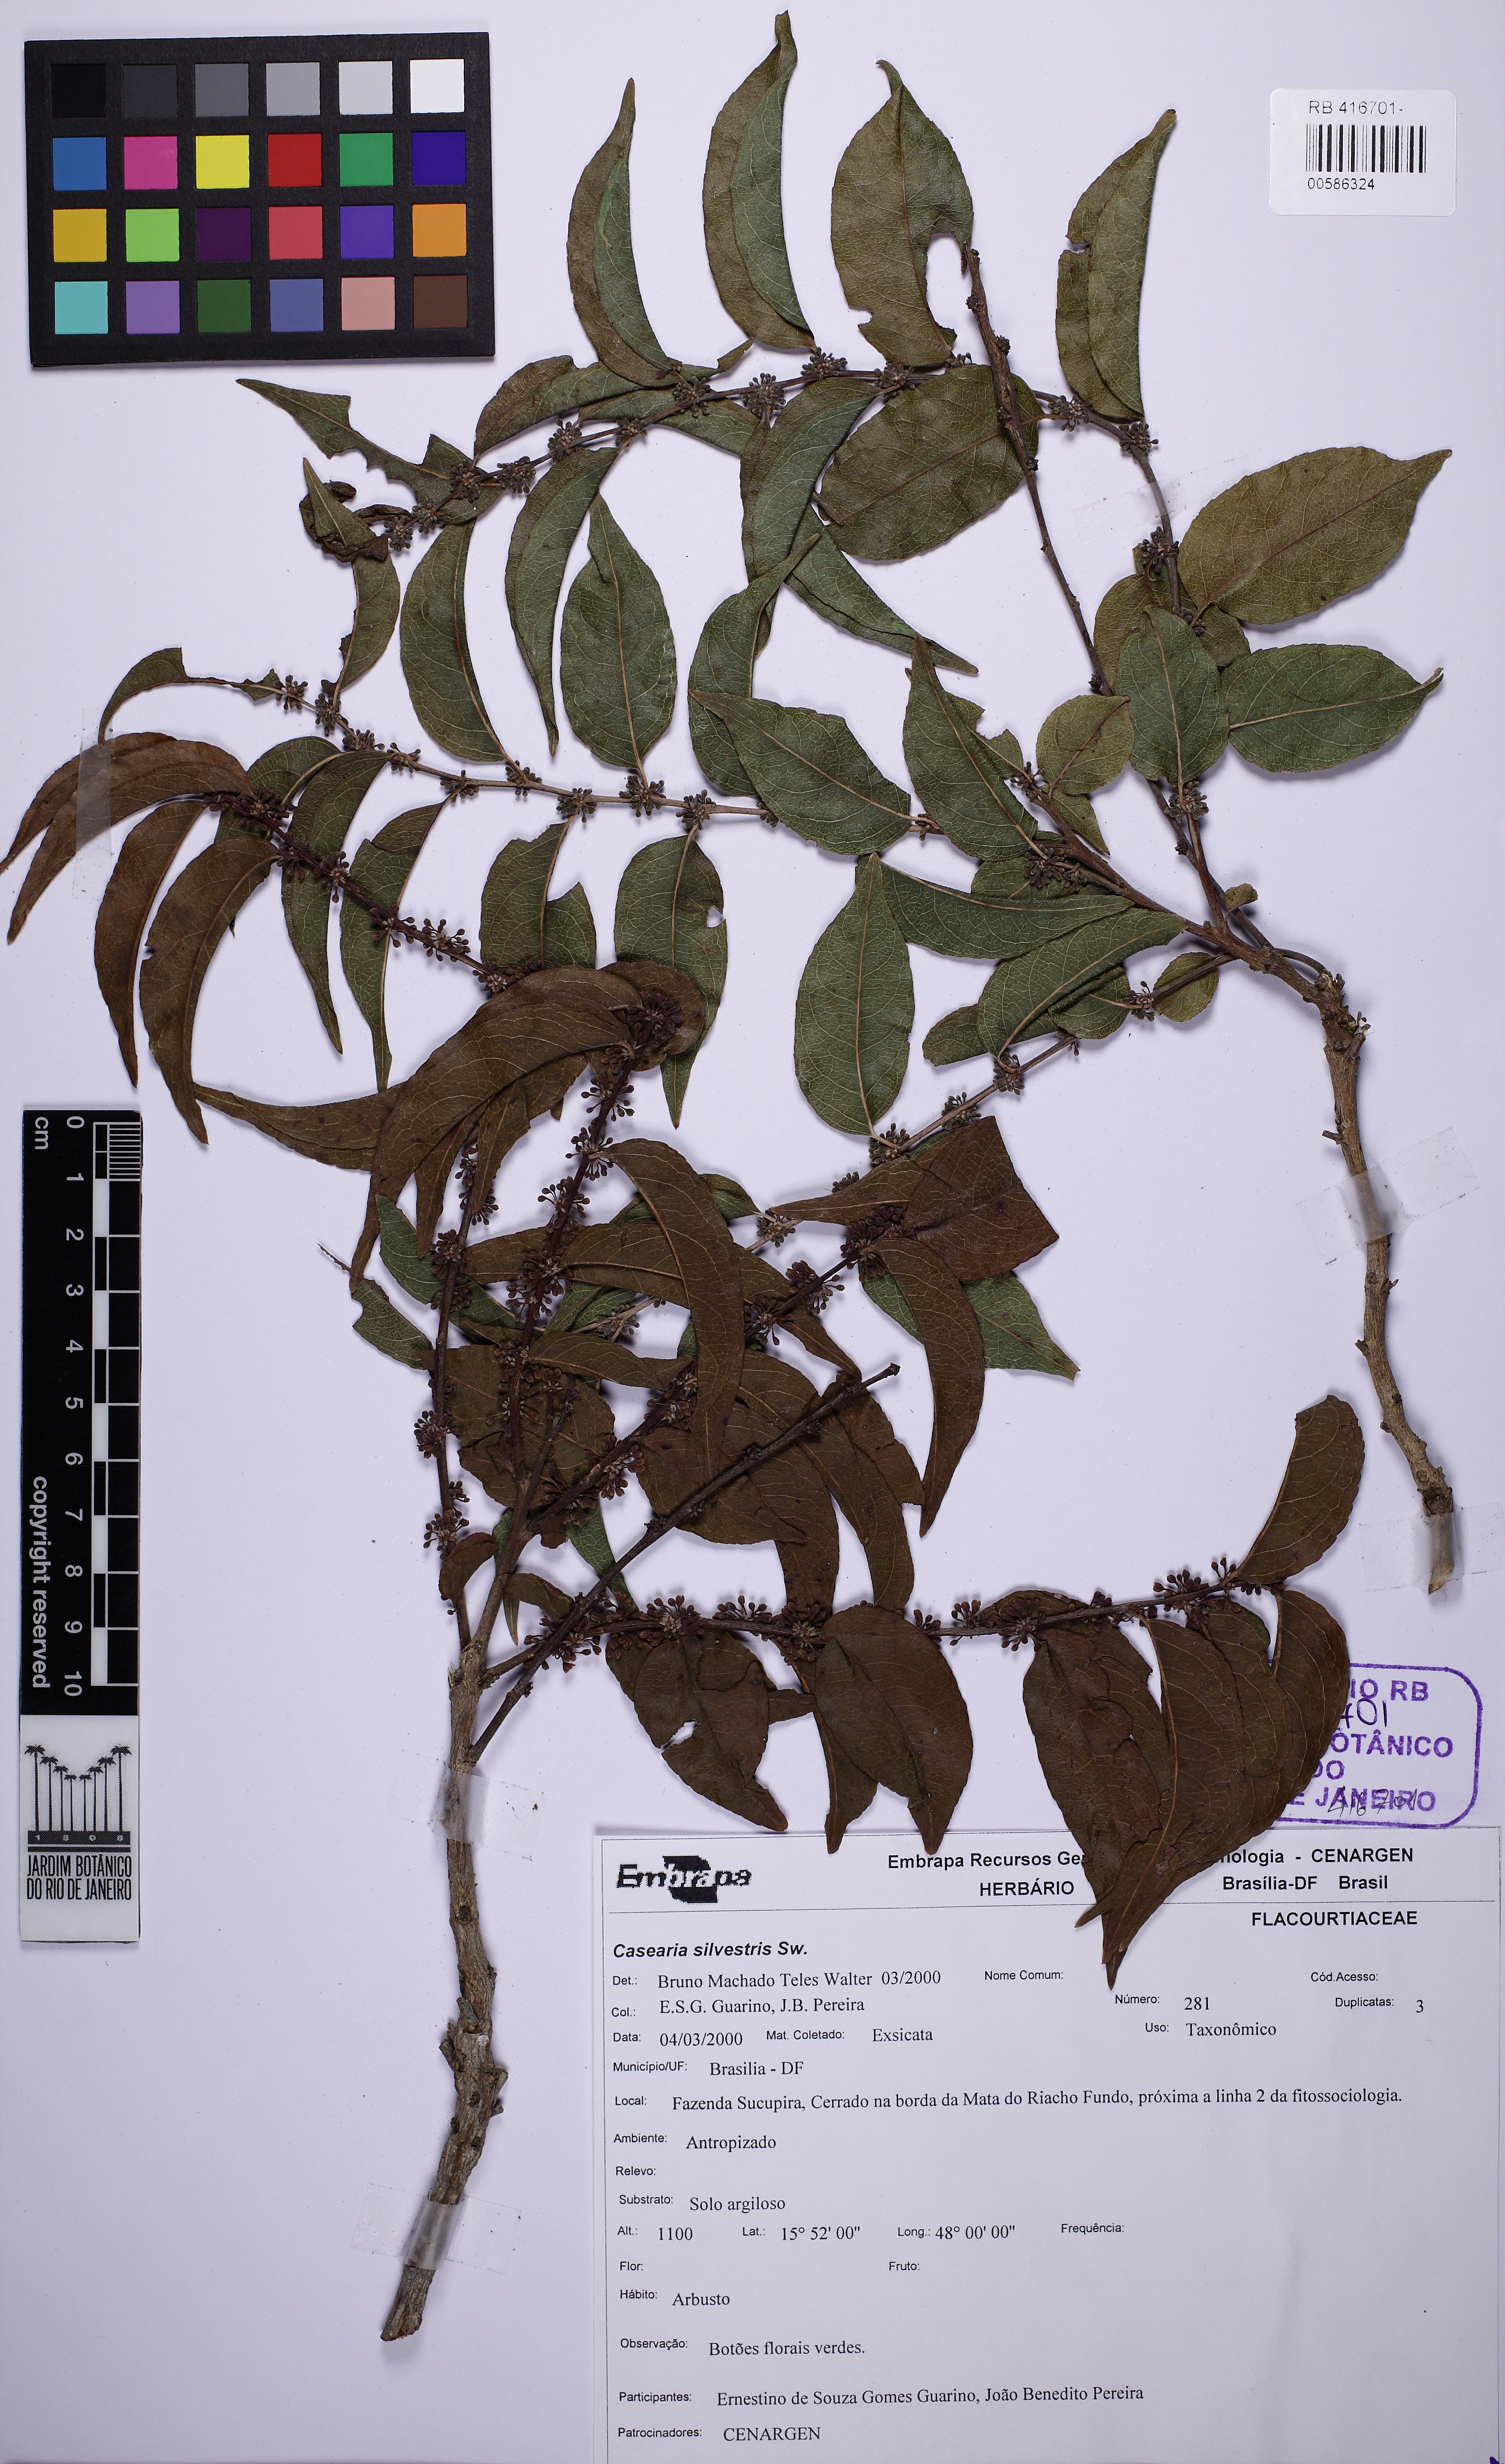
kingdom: Plantae
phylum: Tracheophyta
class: Magnoliopsida
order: Malpighiales
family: Salicaceae
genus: Casearia
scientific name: Casearia sylvestris
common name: Wild sage
